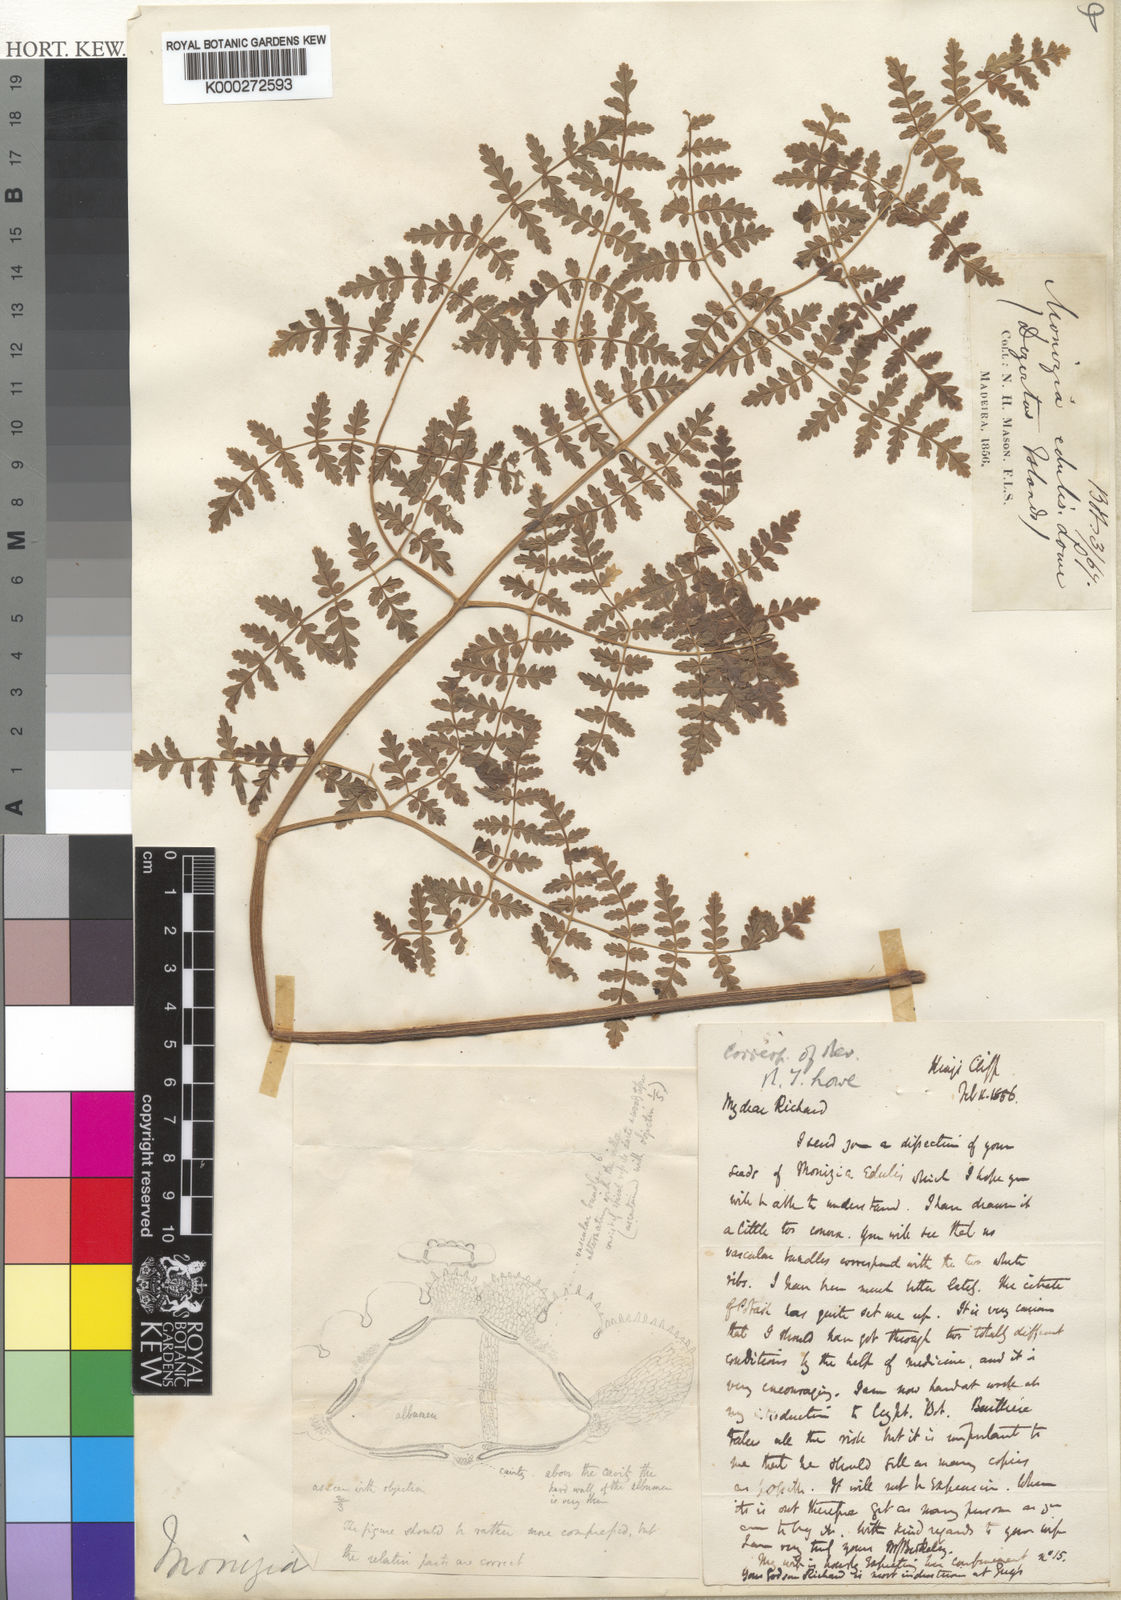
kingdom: Plantae
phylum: Tracheophyta
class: Magnoliopsida
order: Apiales
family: Apiaceae
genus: Daucus
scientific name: Daucus edulis
